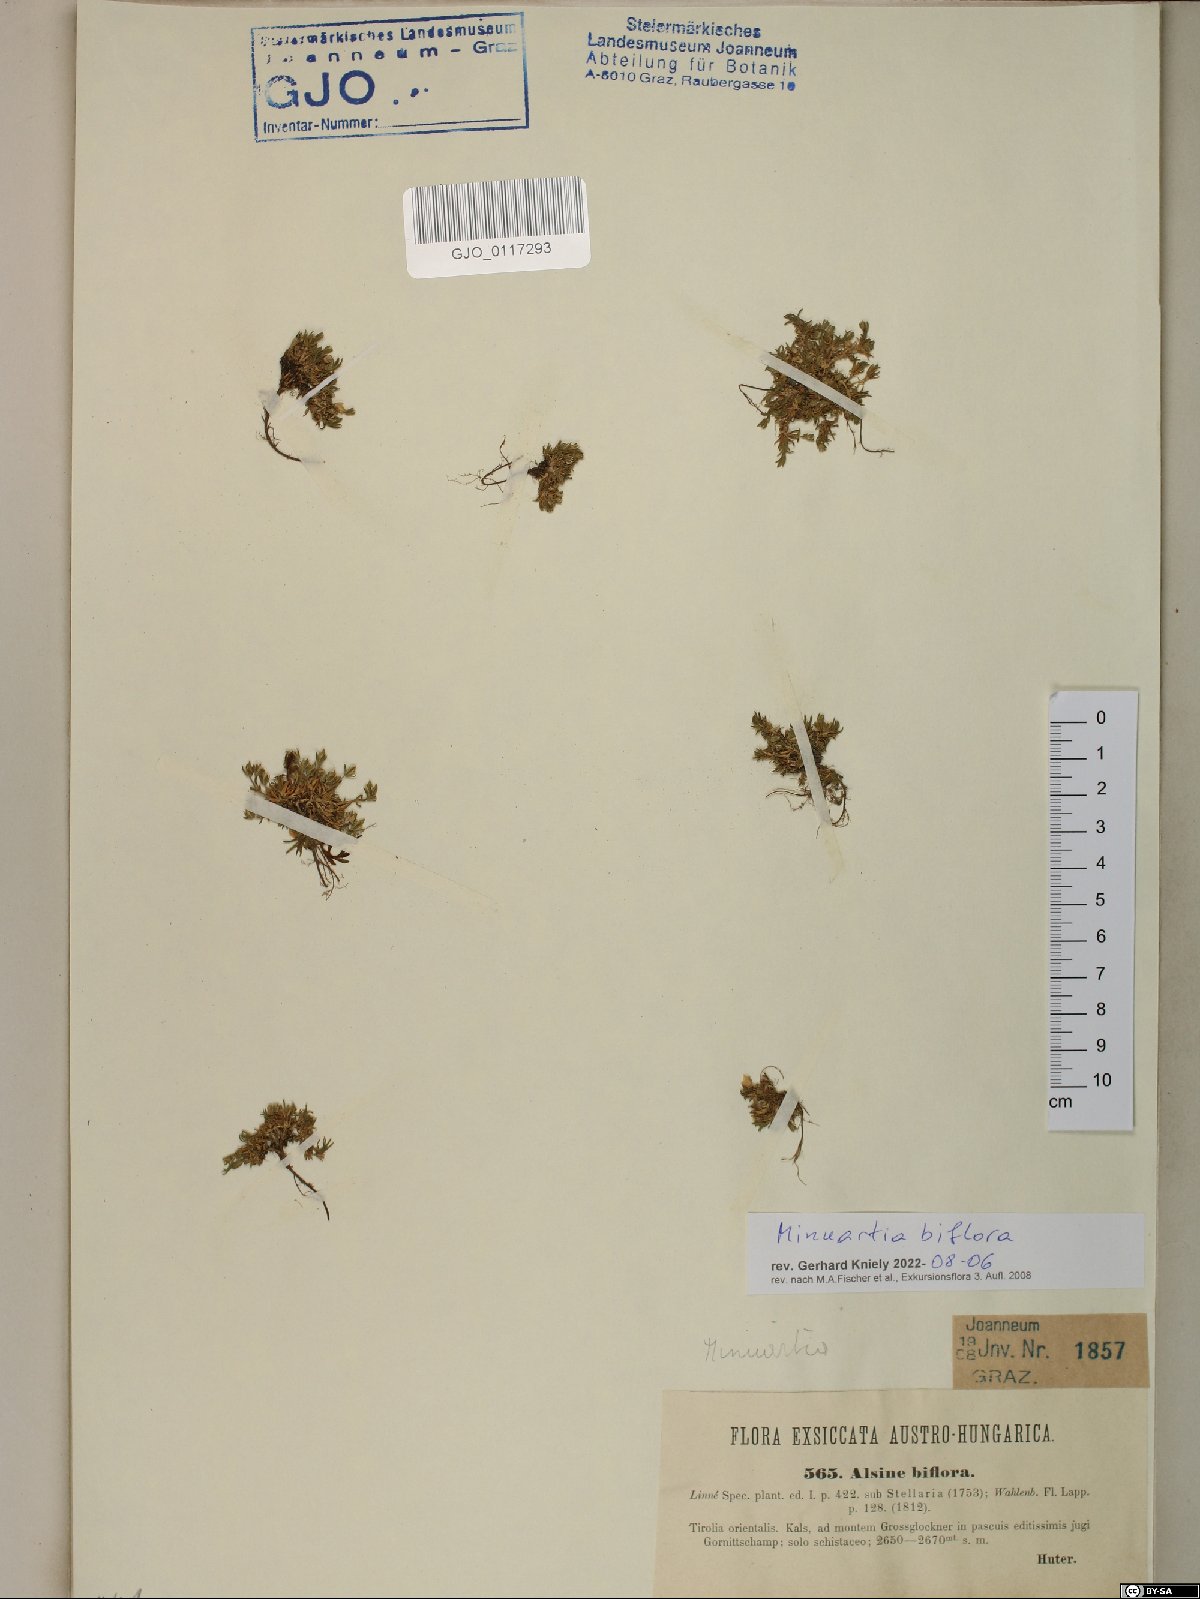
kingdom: Plantae
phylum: Tracheophyta
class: Magnoliopsida
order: Caryophyllales
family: Caryophyllaceae
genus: Cherleria
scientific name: Cherleria biflora
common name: Mountain sandwort
